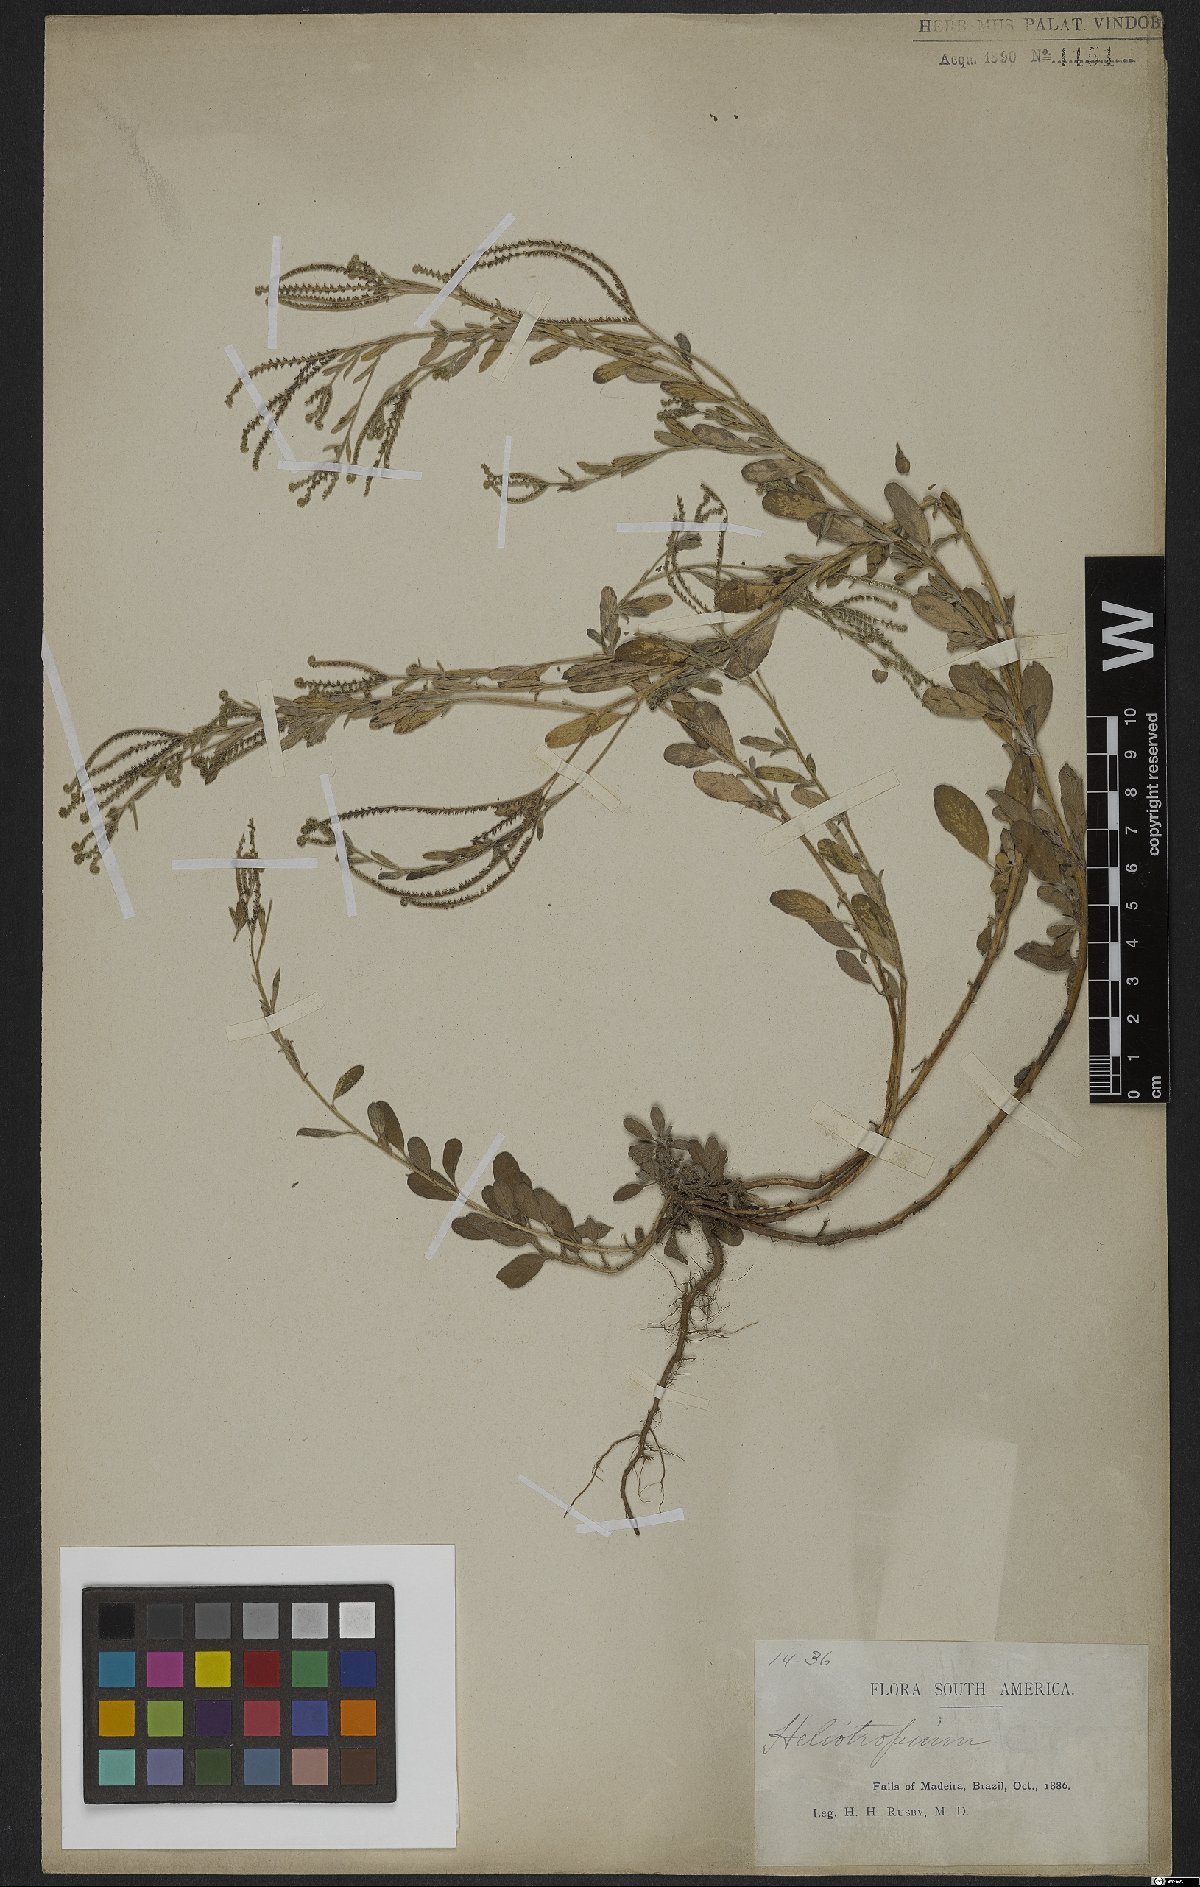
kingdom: Plantae
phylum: Tracheophyta
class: Magnoliopsida
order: Boraginales
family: Heliotropiaceae
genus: Heliotropium
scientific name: Heliotropium
